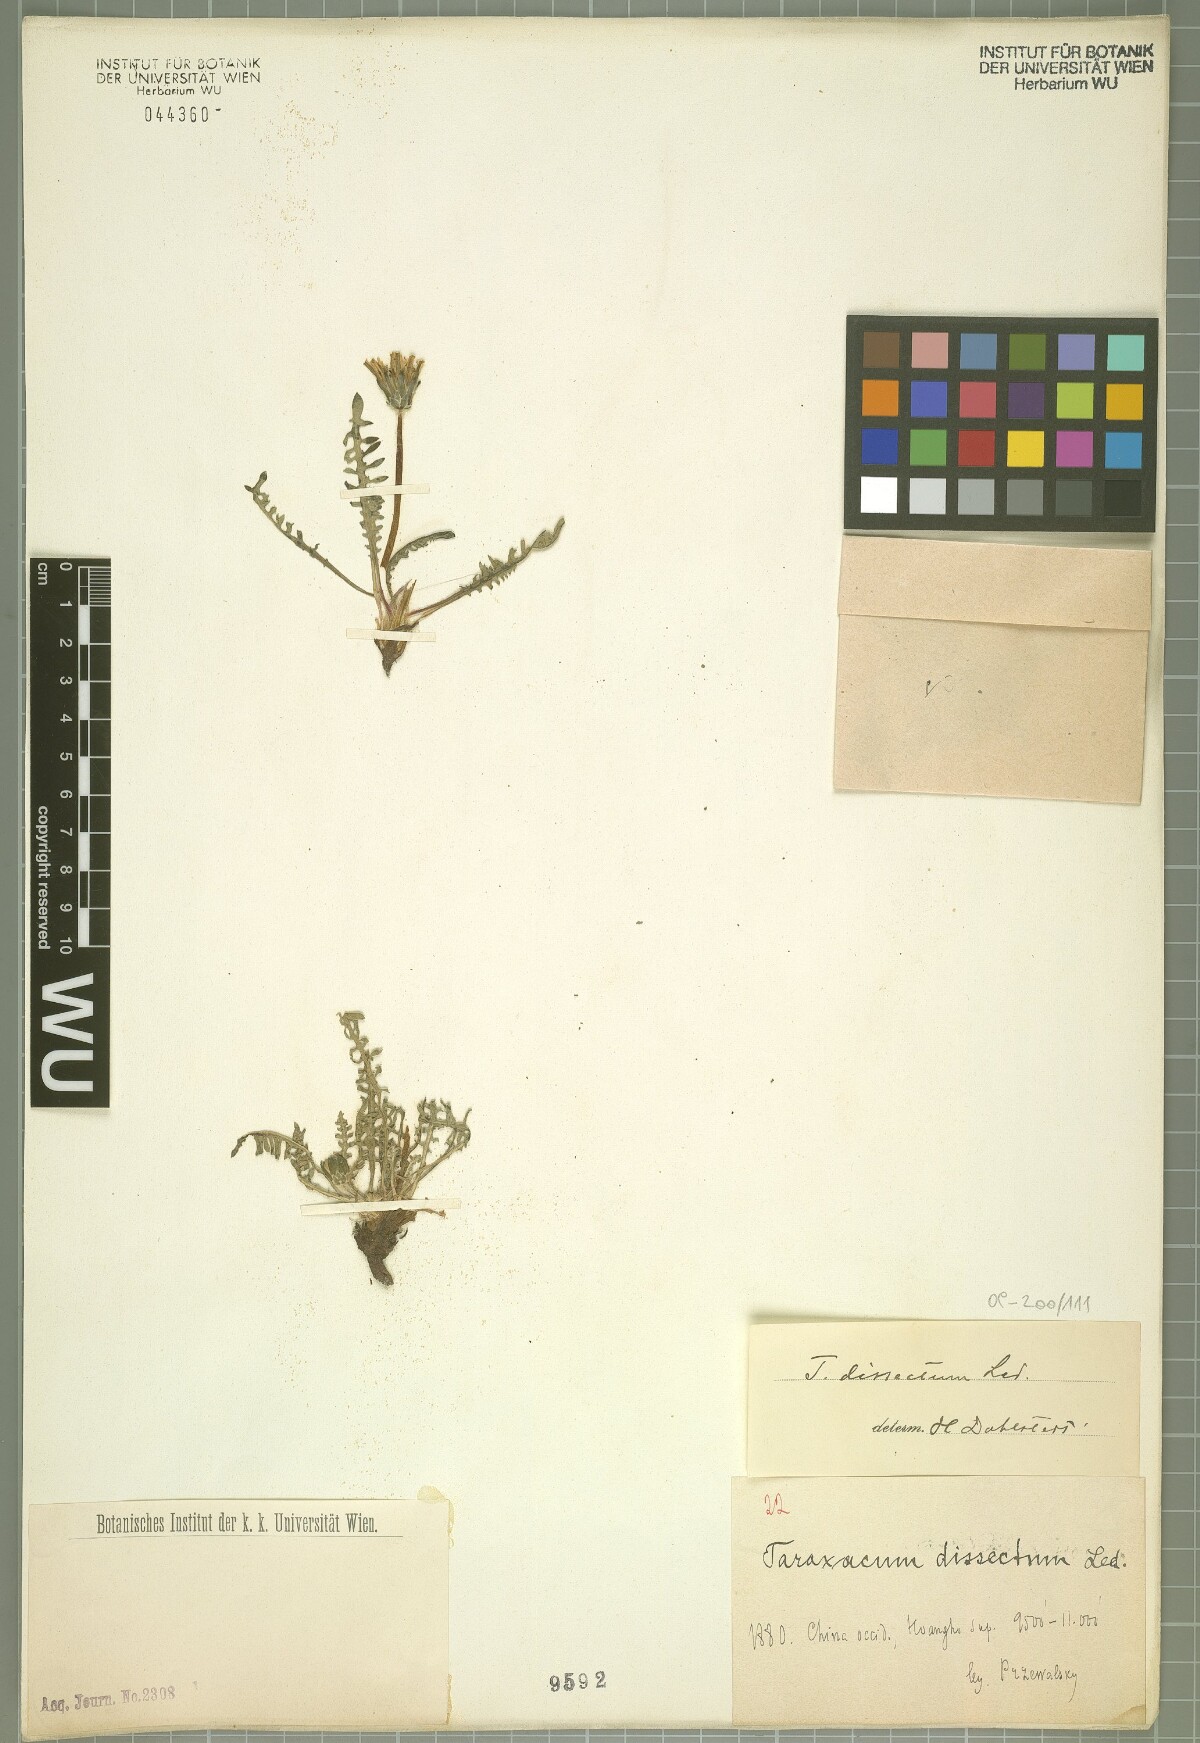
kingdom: Plantae
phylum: Tracheophyta
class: Magnoliopsida
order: Asterales
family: Asteraceae
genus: Taraxacum
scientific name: Taraxacum dissectum
